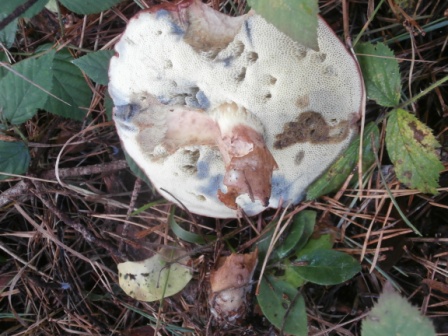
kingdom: Fungi
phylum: Basidiomycota
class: Agaricomycetes
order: Boletales
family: Boletaceae
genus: Imleria
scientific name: Imleria badia
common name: brunstokket rørhat
